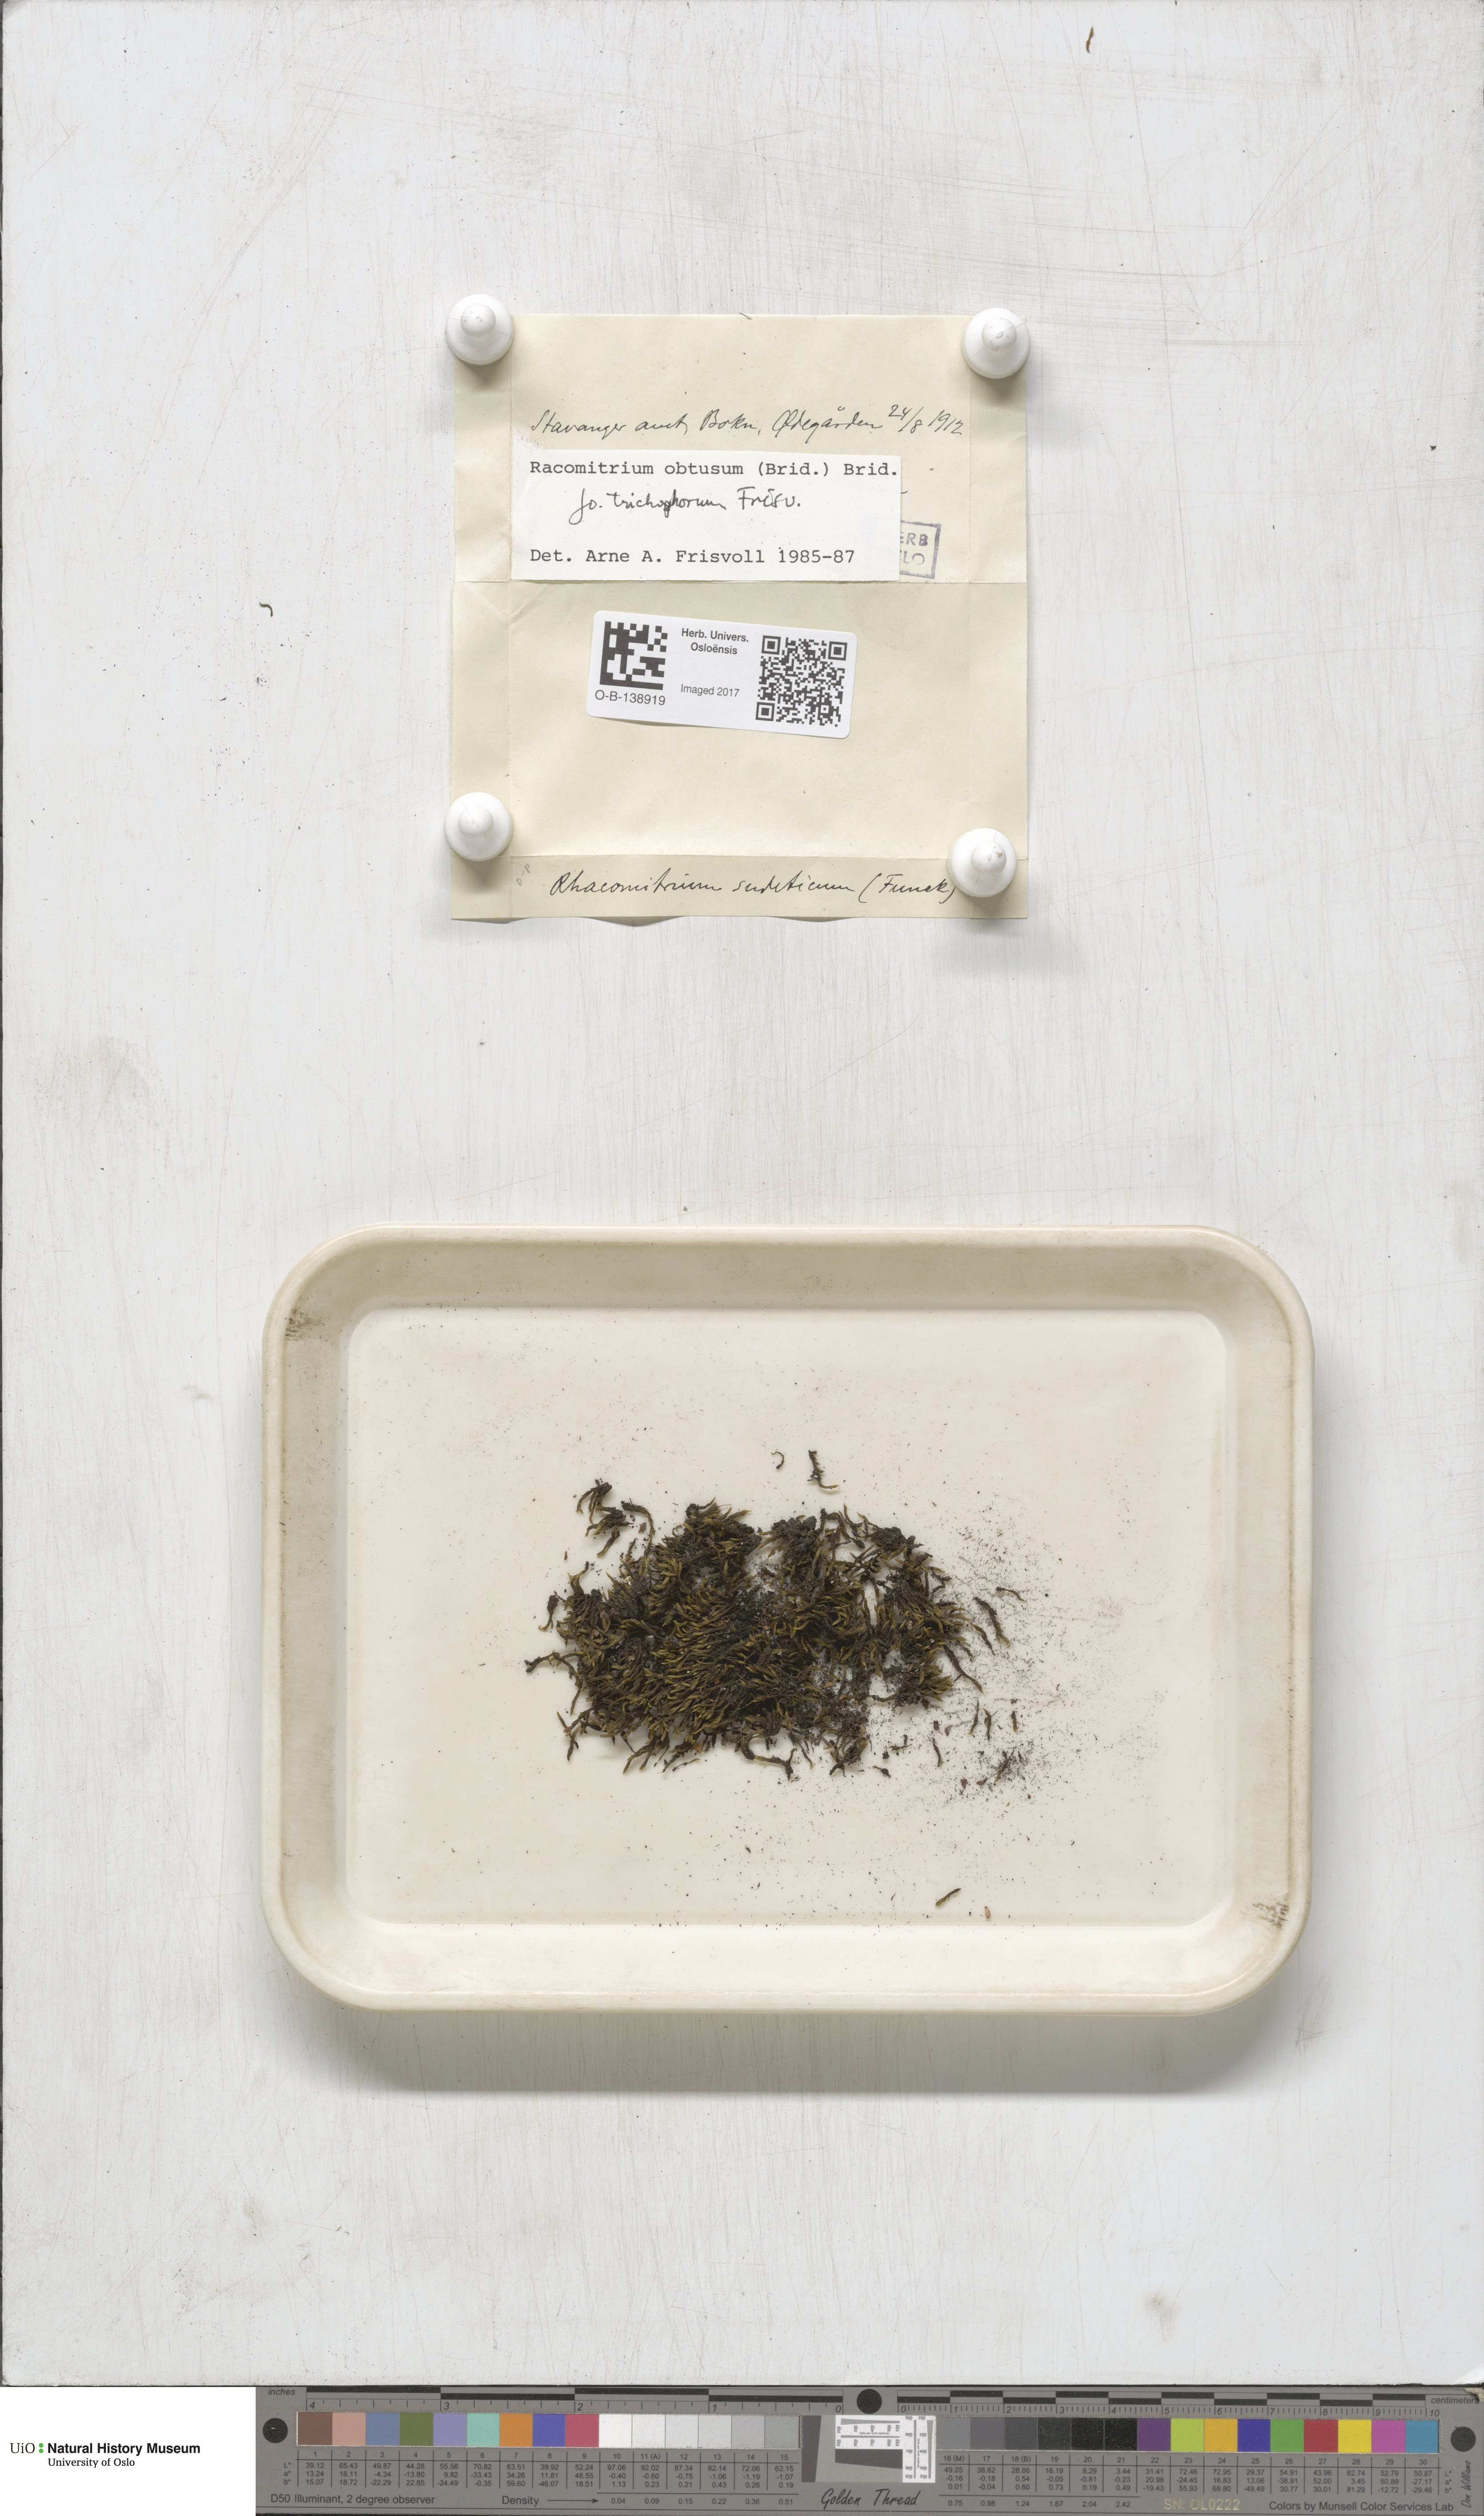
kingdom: Plantae
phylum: Bryophyta
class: Bryopsida
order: Grimmiales
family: Grimmiaceae
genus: Bucklandiella
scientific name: Bucklandiella obtusa
